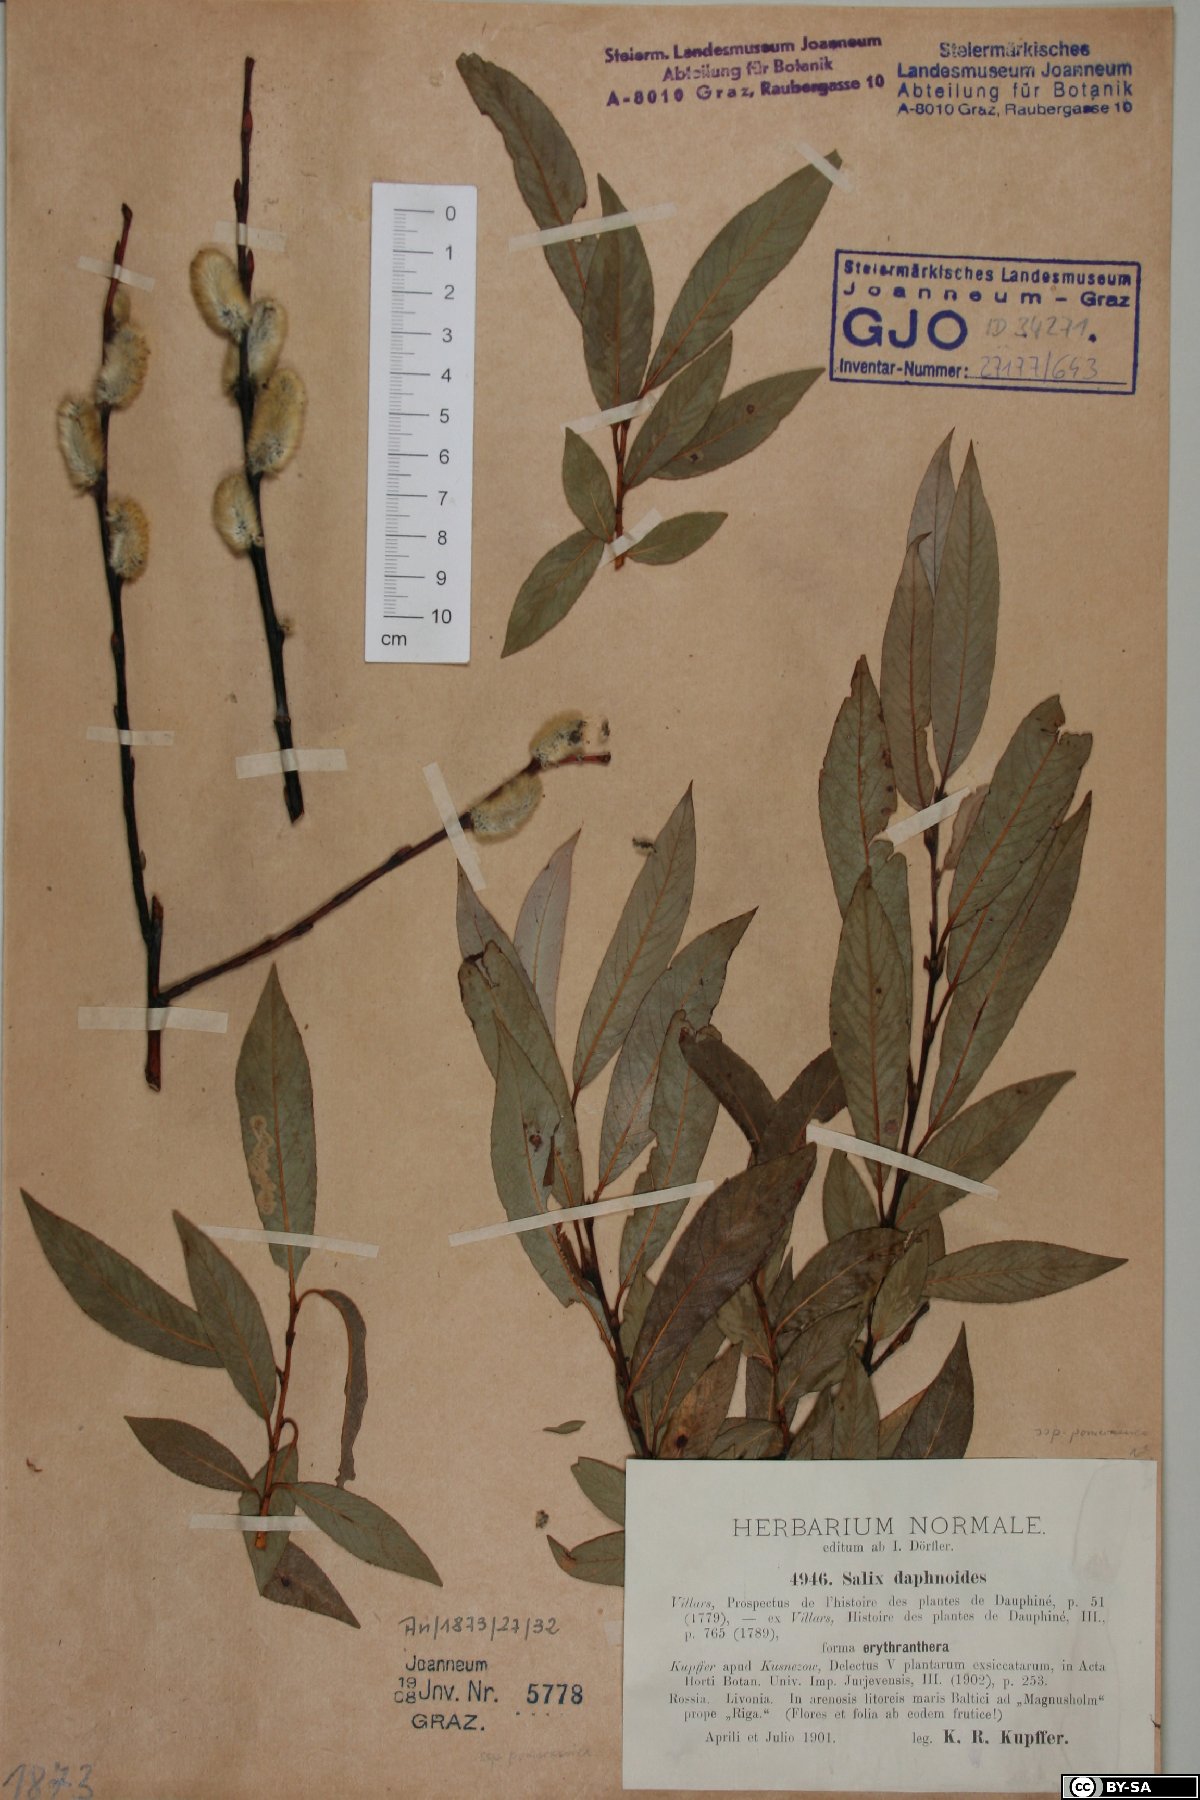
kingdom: Plantae
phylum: Tracheophyta
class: Magnoliopsida
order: Malpighiales
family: Salicaceae
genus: Salix
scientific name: Salix daphnoides
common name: European violet-willow
